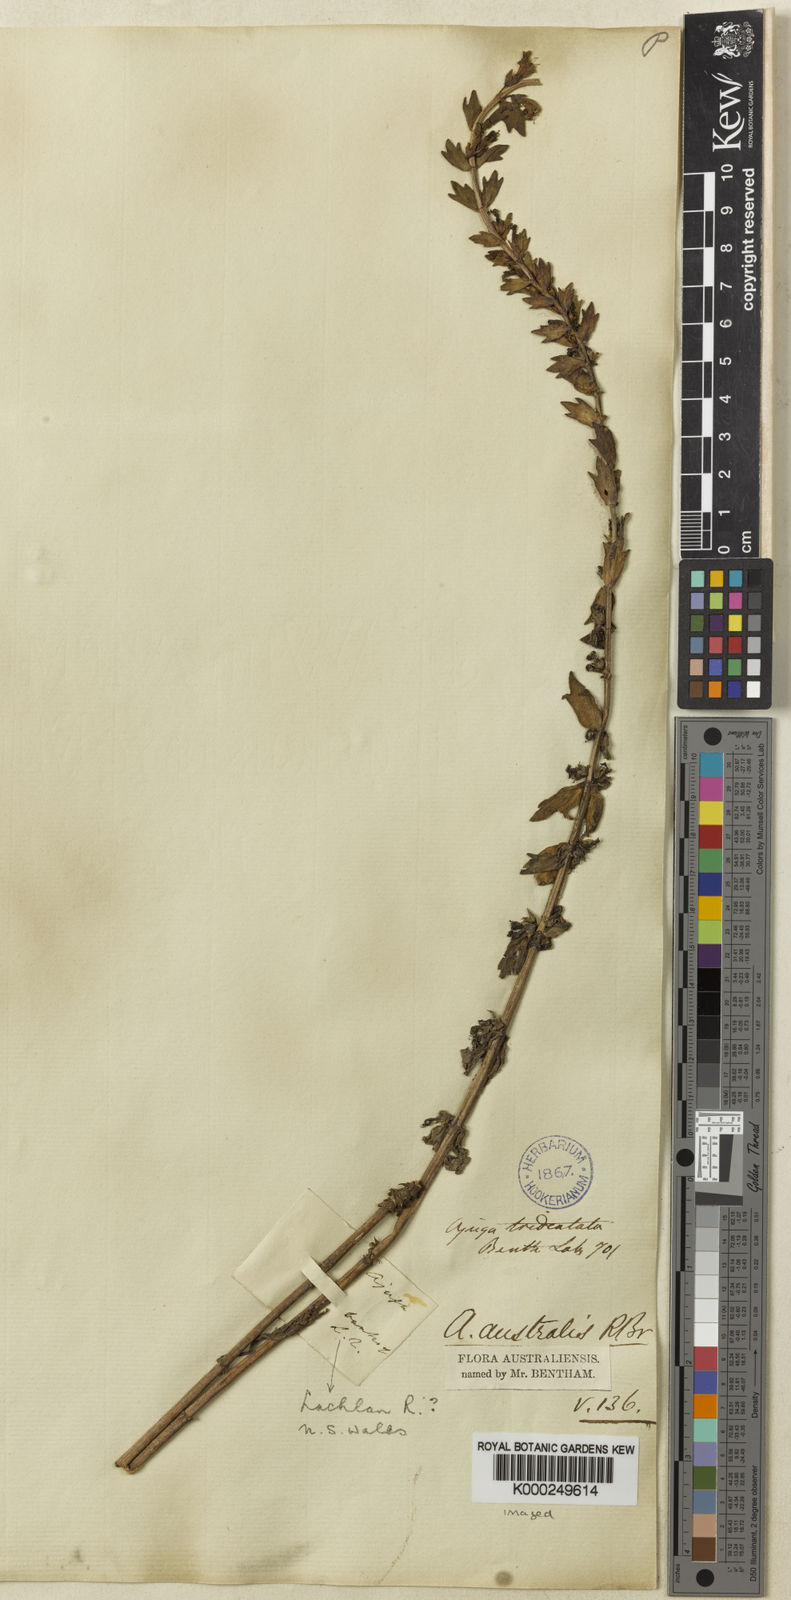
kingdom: Plantae
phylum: Tracheophyta
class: Magnoliopsida
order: Lamiales
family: Lamiaceae
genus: Ajuga
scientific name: Ajuga australis
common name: Australian bugle
